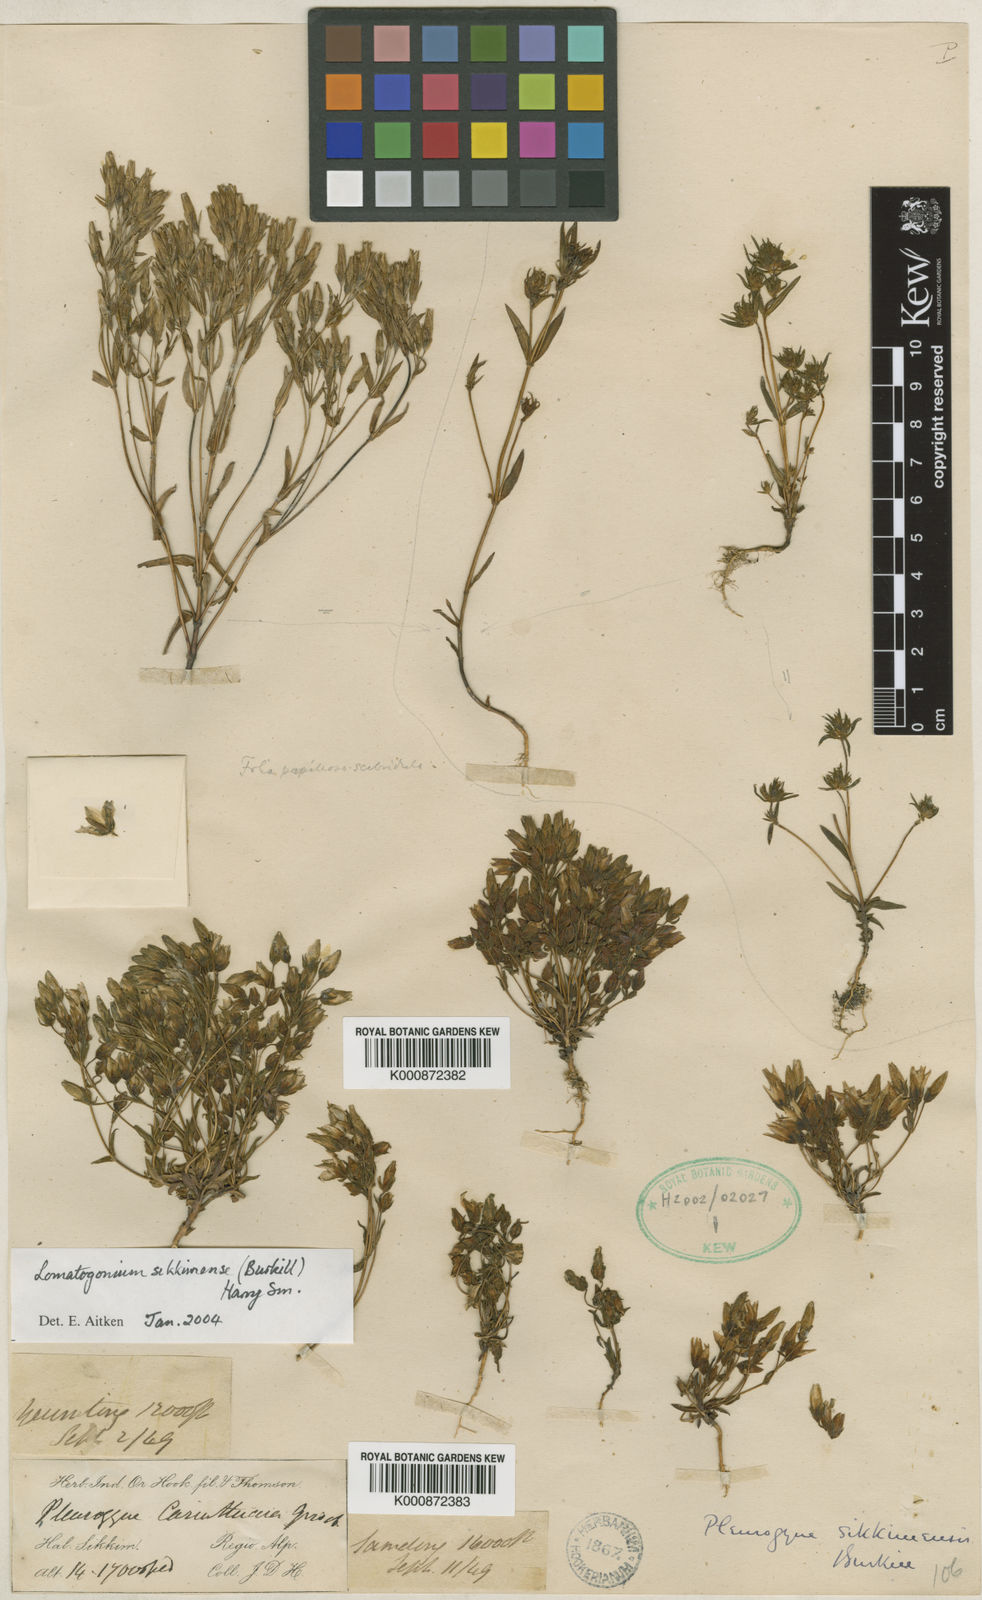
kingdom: Plantae
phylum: Tracheophyta
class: Magnoliopsida
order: Gentianales
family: Gentianaceae
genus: Lomatogonium
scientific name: Lomatogonium sikkimense
